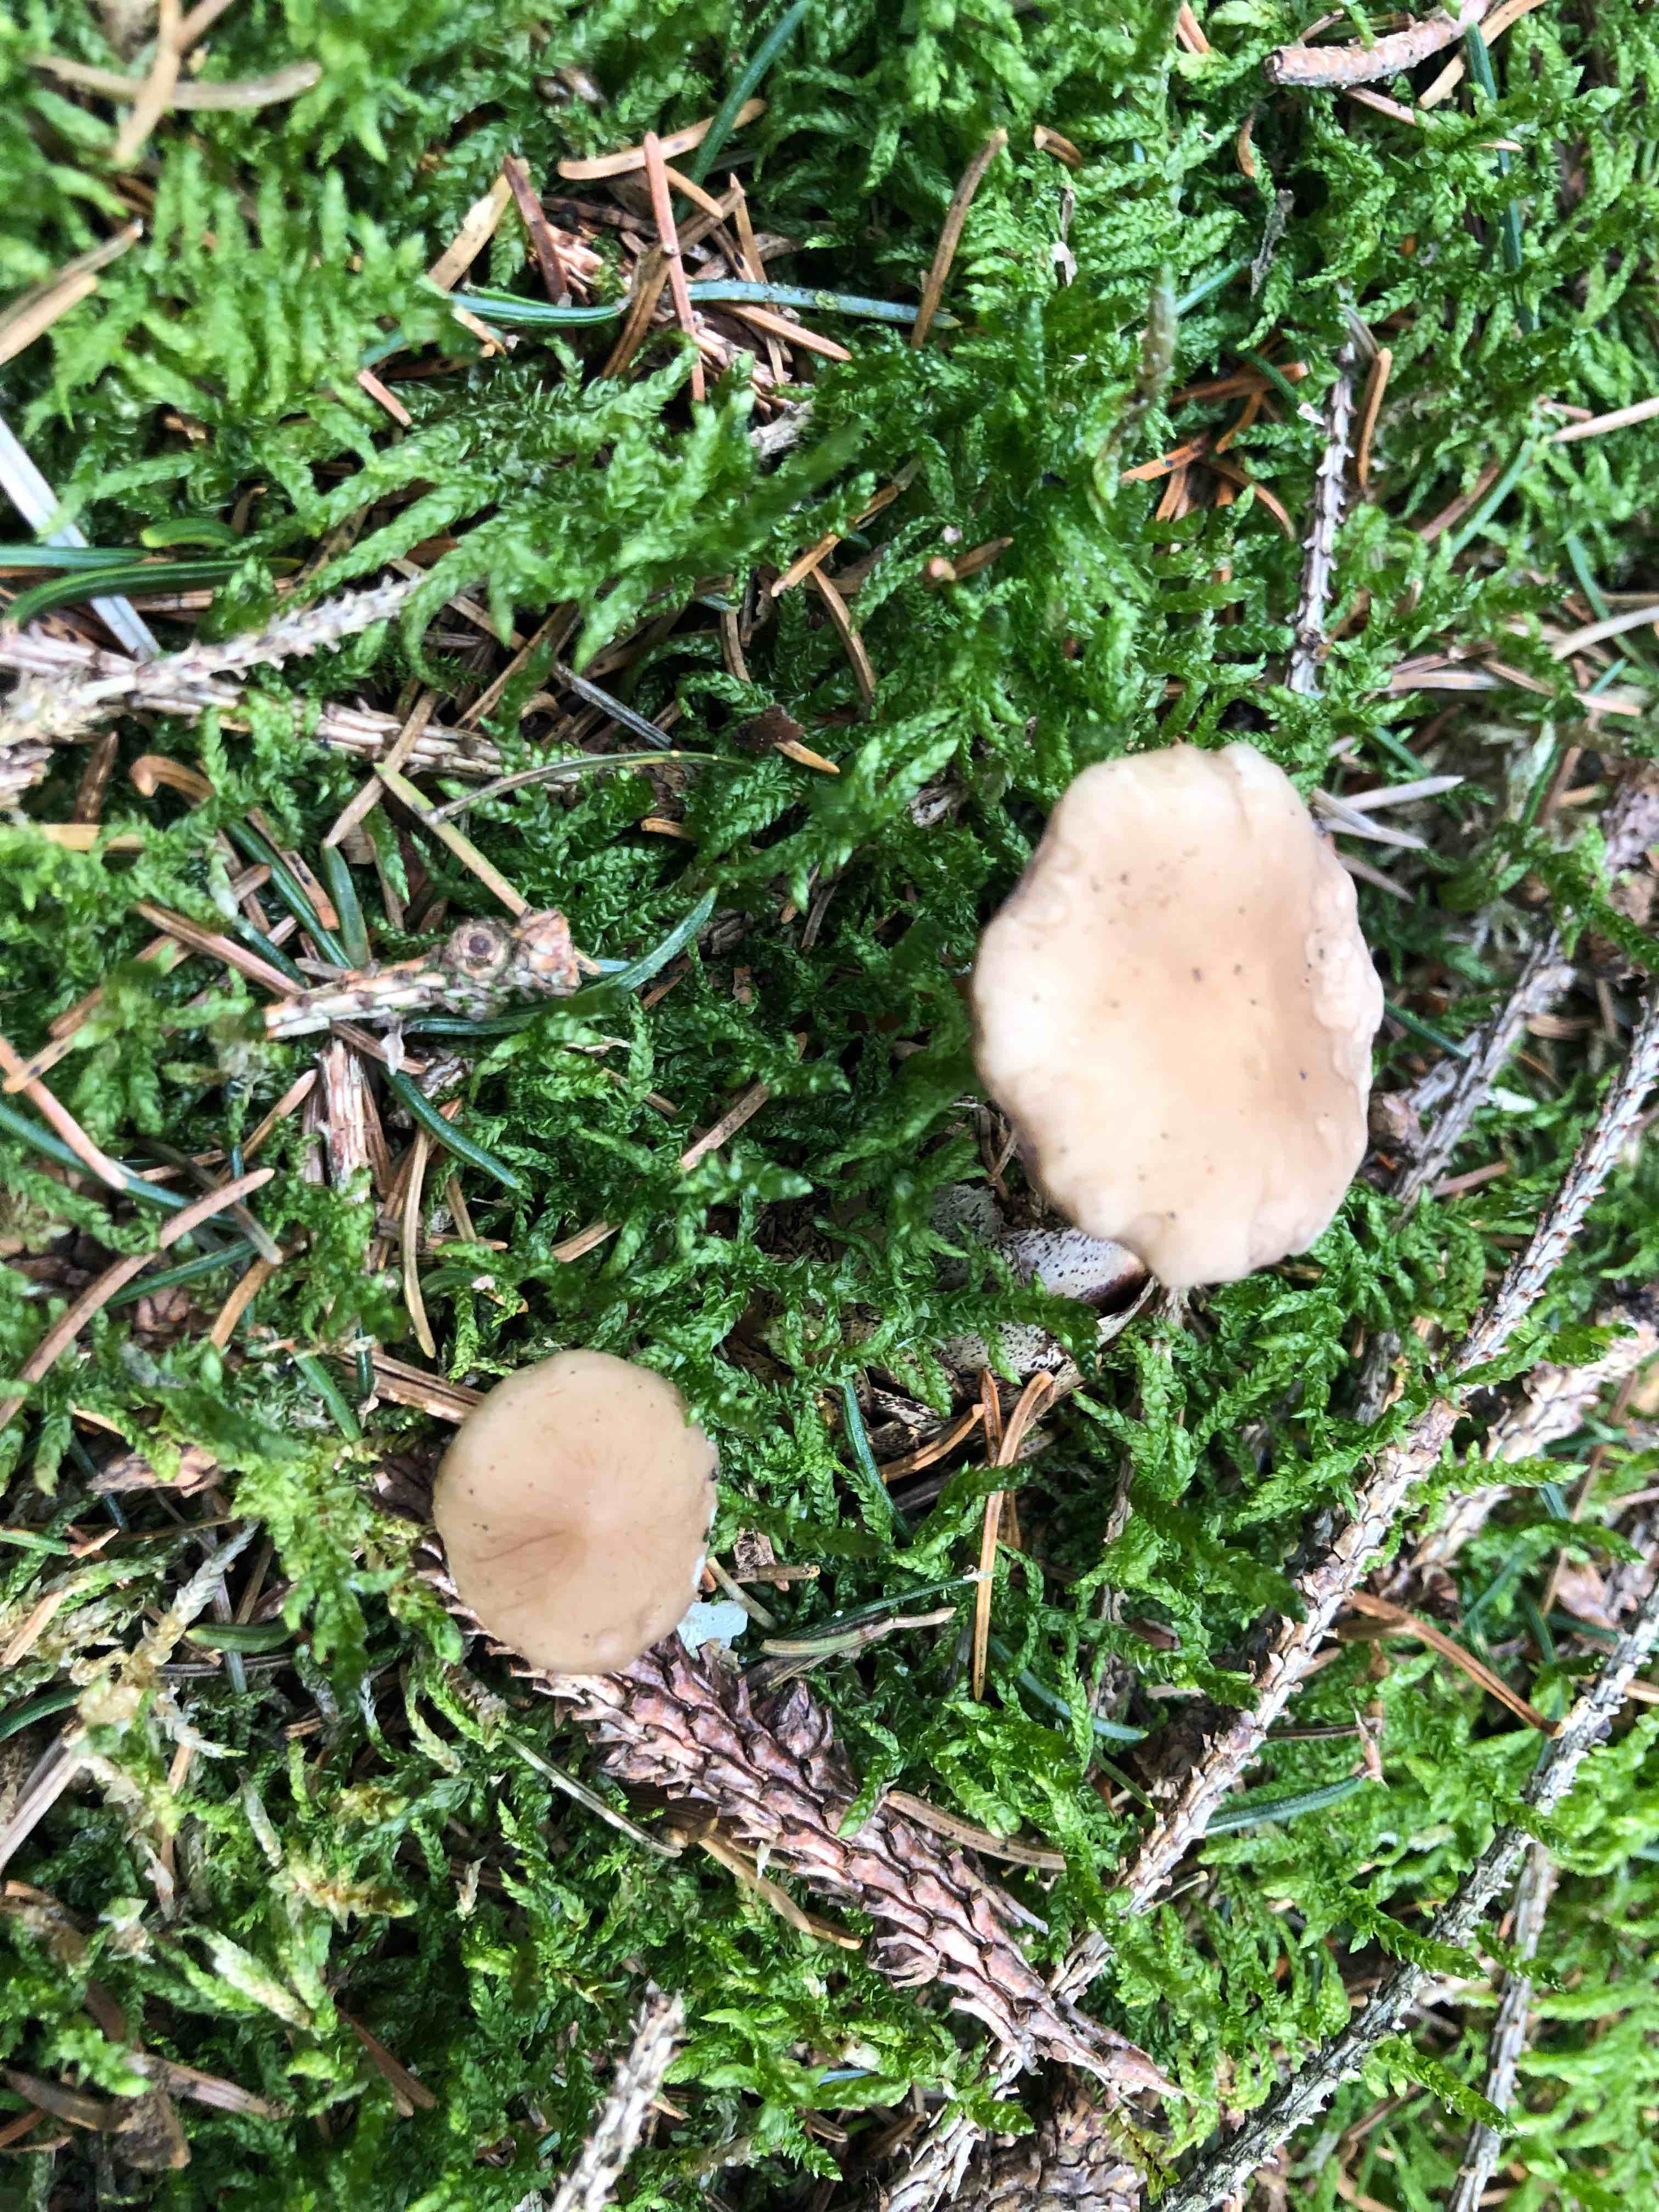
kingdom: Fungi
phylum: Basidiomycota
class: Agaricomycetes
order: Agaricales
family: Physalacriaceae
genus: Strobilurus
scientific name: Strobilurus esculentus
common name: gran-koglehat
